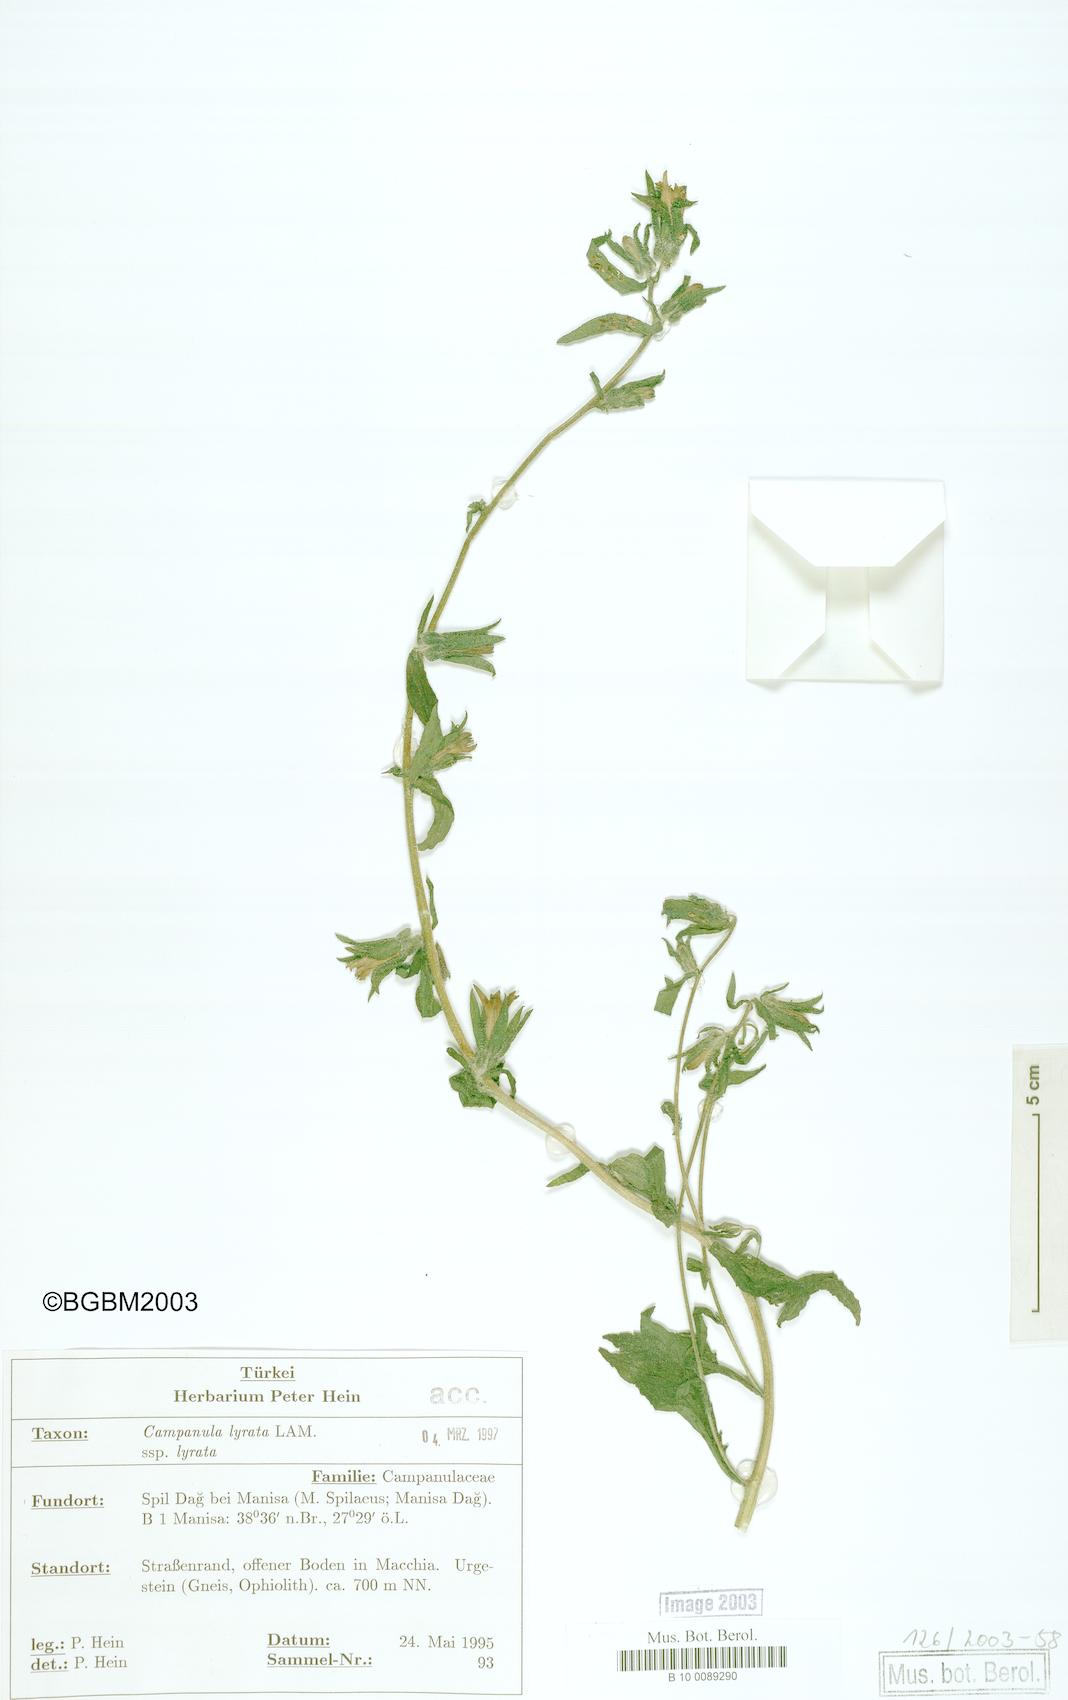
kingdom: Plantae
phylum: Tracheophyta
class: Magnoliopsida
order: Asterales
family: Campanulaceae
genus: Campanula
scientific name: Campanula lyrata
